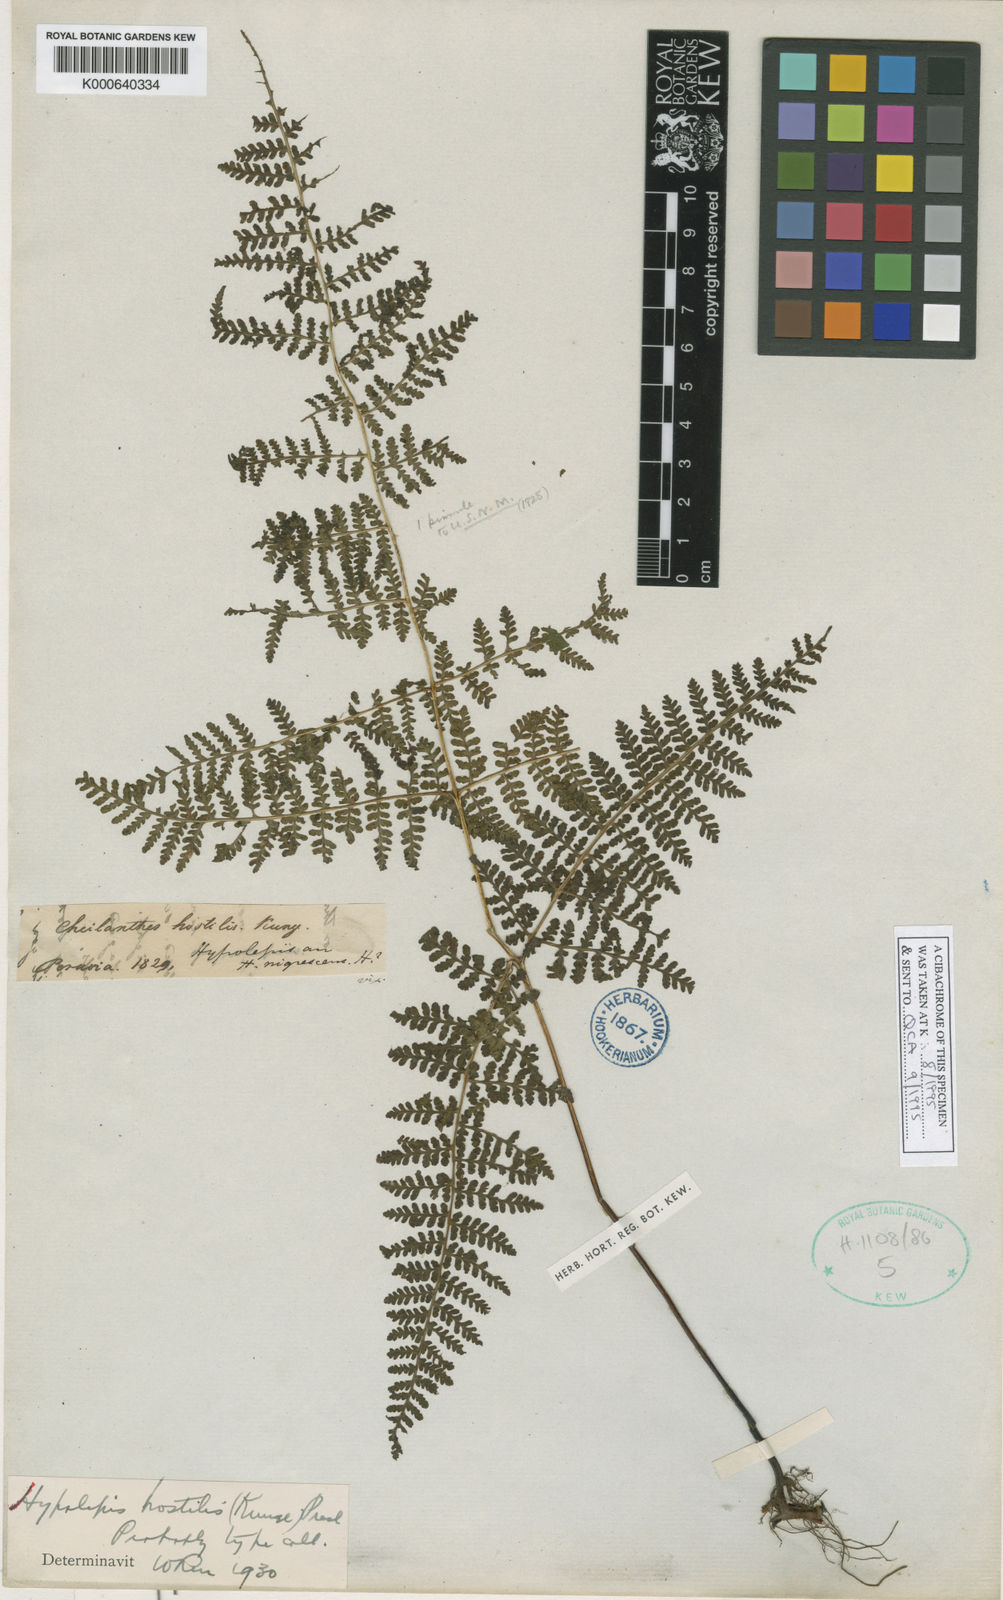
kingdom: Plantae
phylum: Tracheophyta
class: Polypodiopsida
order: Polypodiales
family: Dennstaedtiaceae
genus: Hypolepis
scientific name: Hypolepis hostilis
